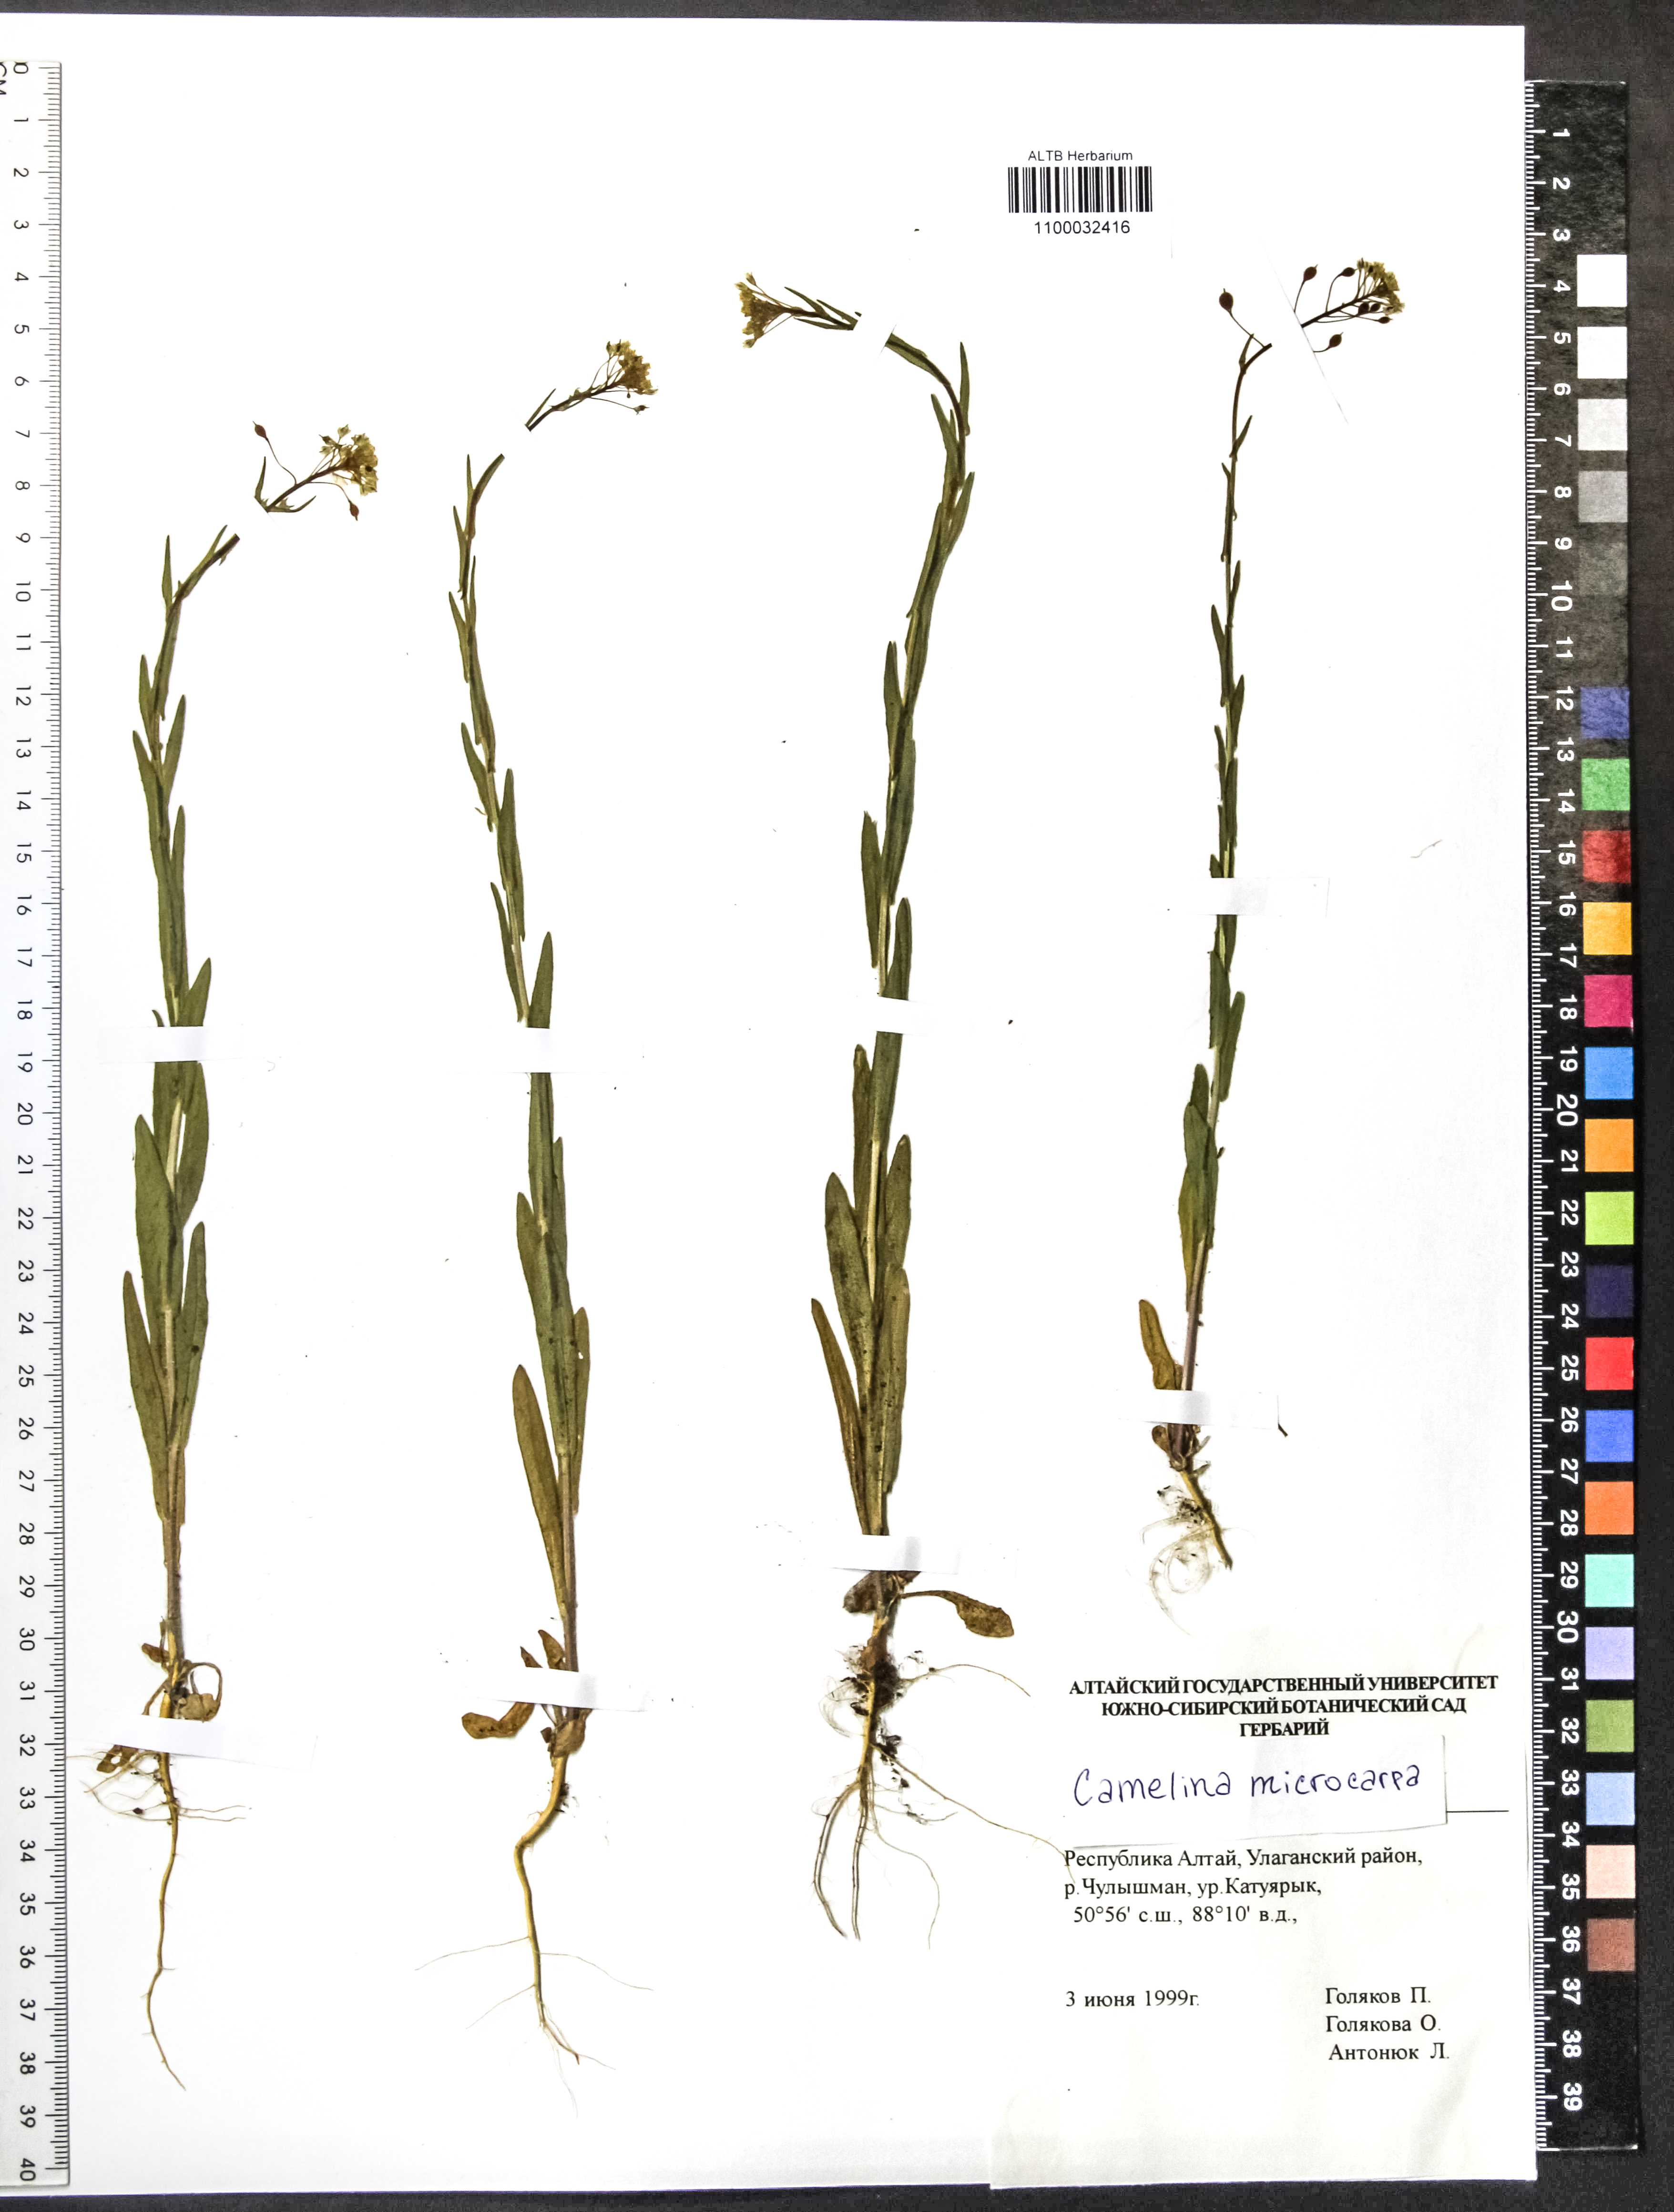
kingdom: Plantae
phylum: Tracheophyta
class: Magnoliopsida
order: Brassicales
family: Brassicaceae
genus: Camelina
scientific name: Camelina microcarpa
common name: Lesser gold-of-pleasure
